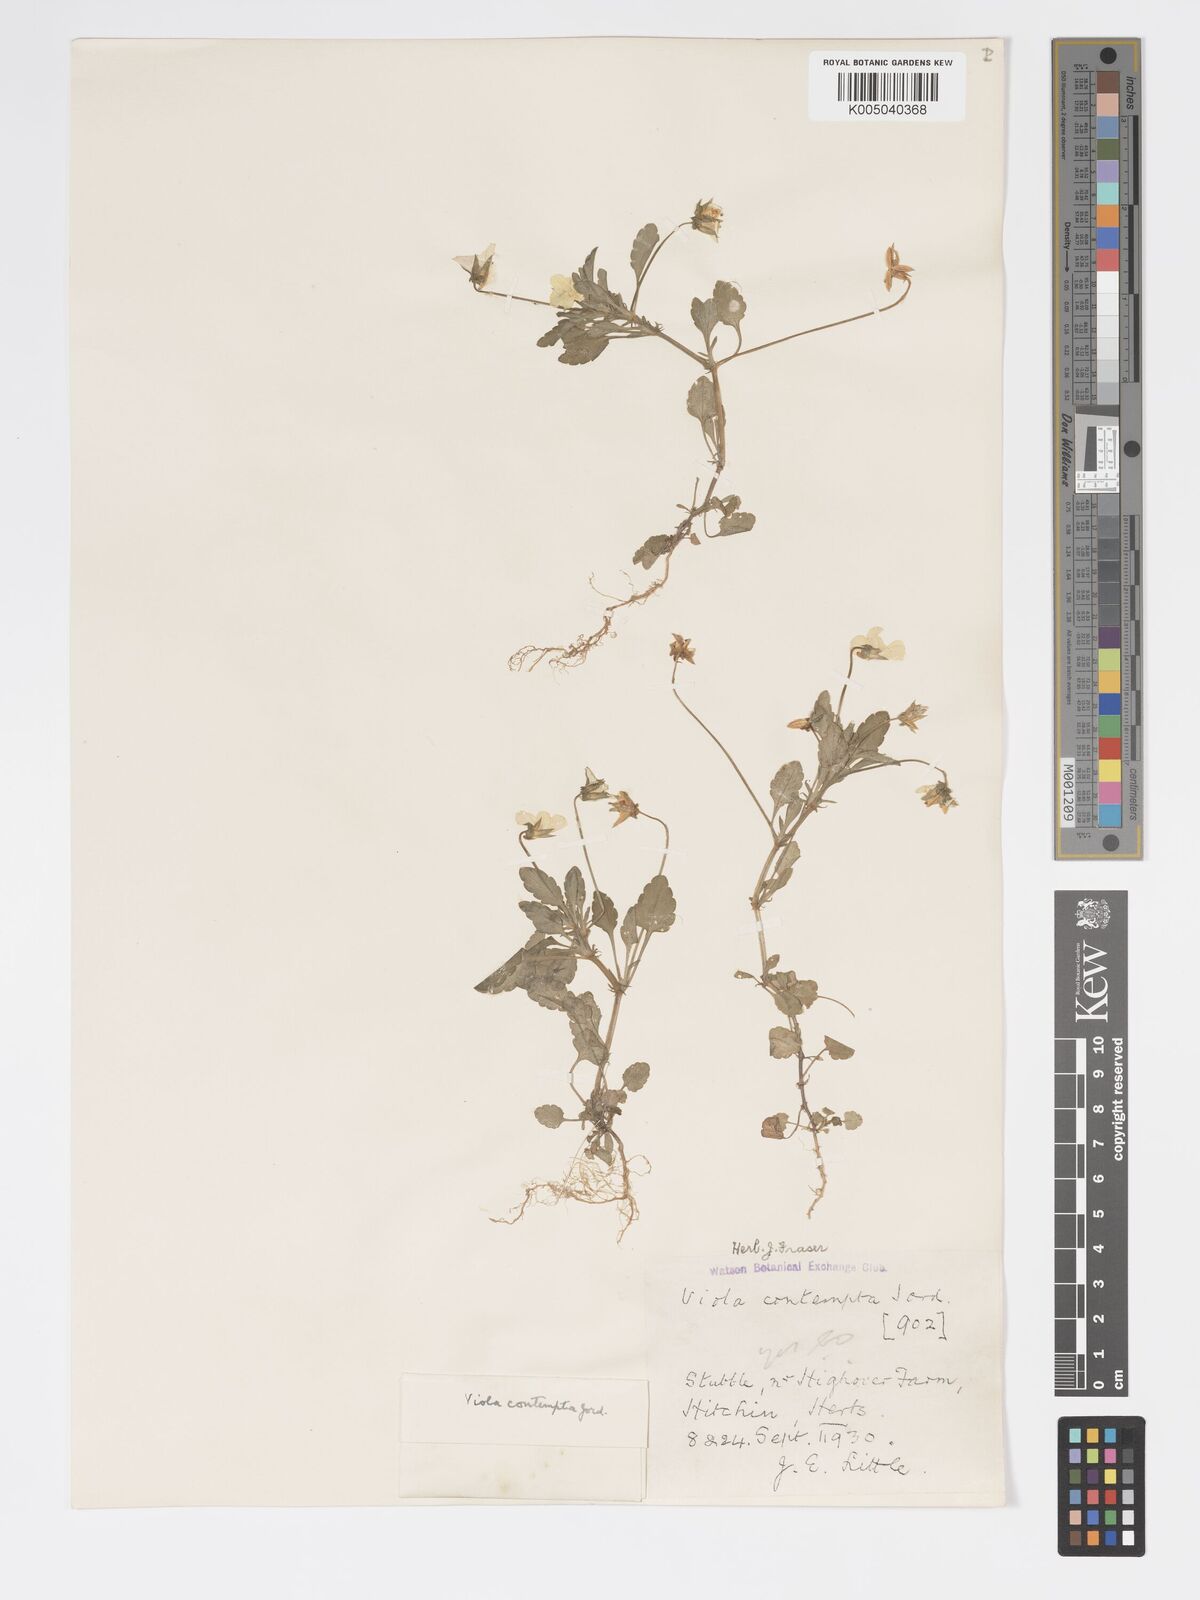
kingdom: Plantae
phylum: Tracheophyta
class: Magnoliopsida
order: Malpighiales
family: Violaceae
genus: Viola
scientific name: Viola arvensis
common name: Field pansy
